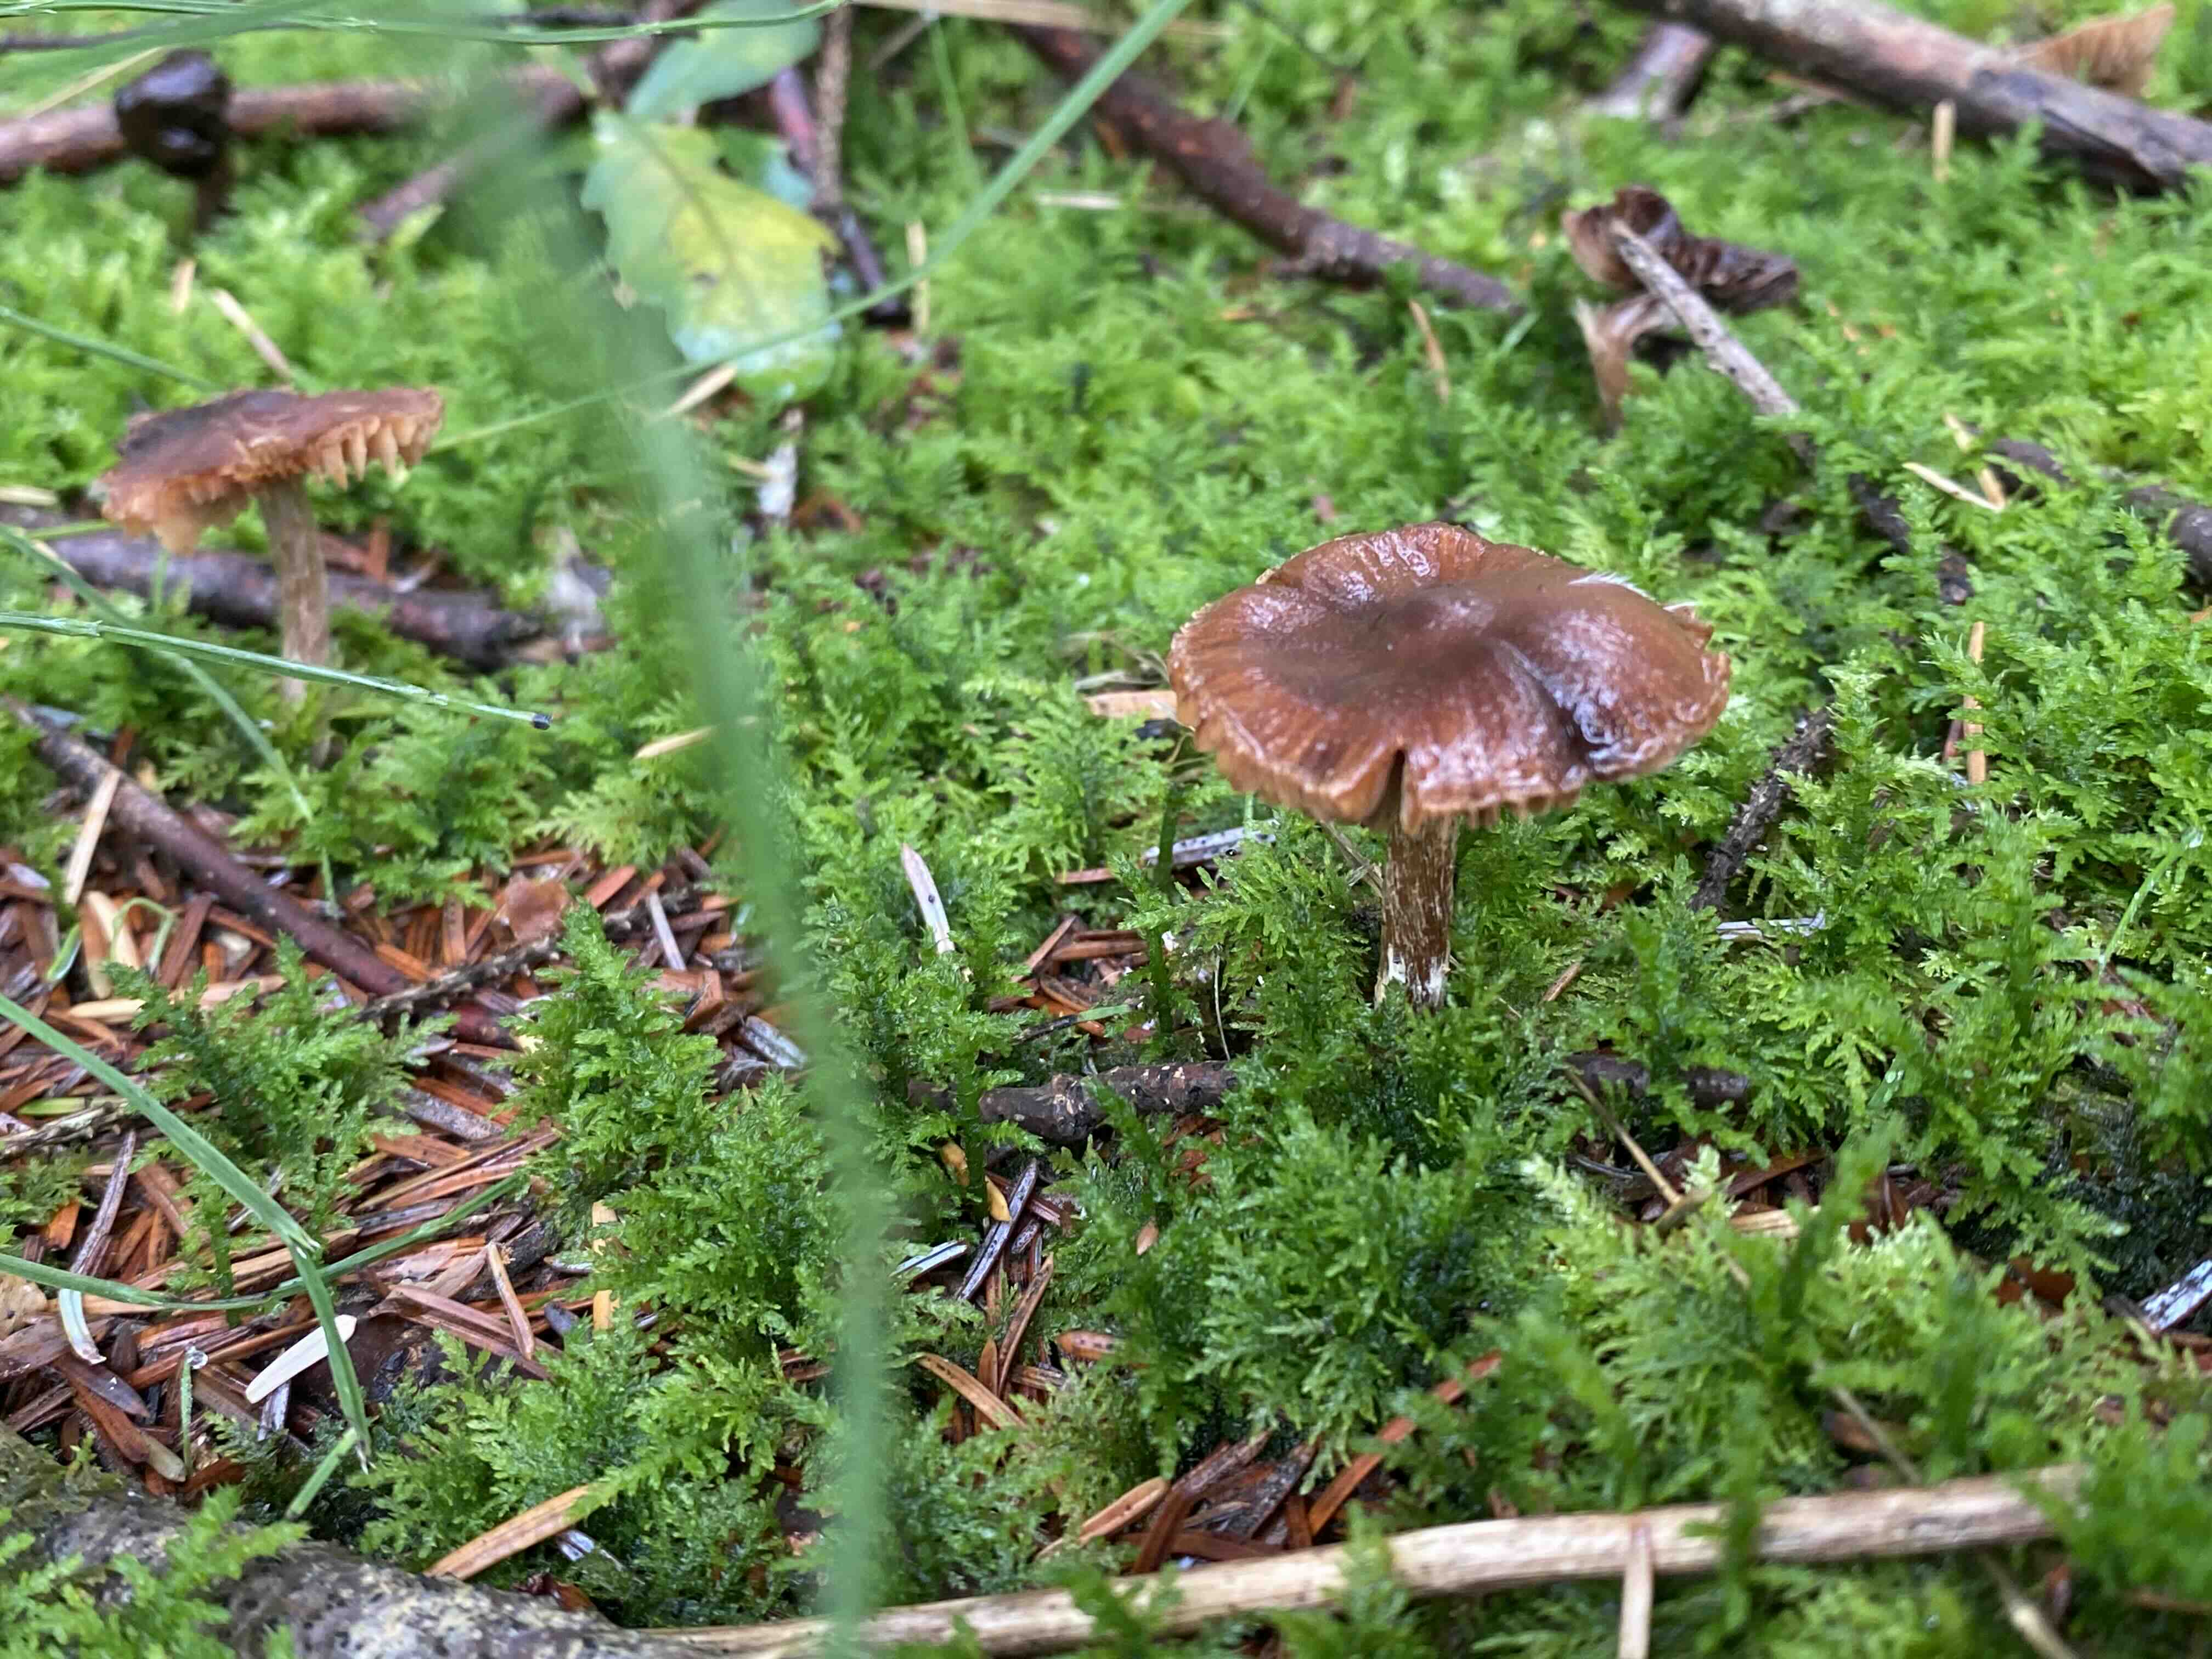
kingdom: Fungi
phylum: Basidiomycota
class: Agaricomycetes
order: Agaricales
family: Cortinariaceae
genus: Cortinarius
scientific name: Cortinarius
